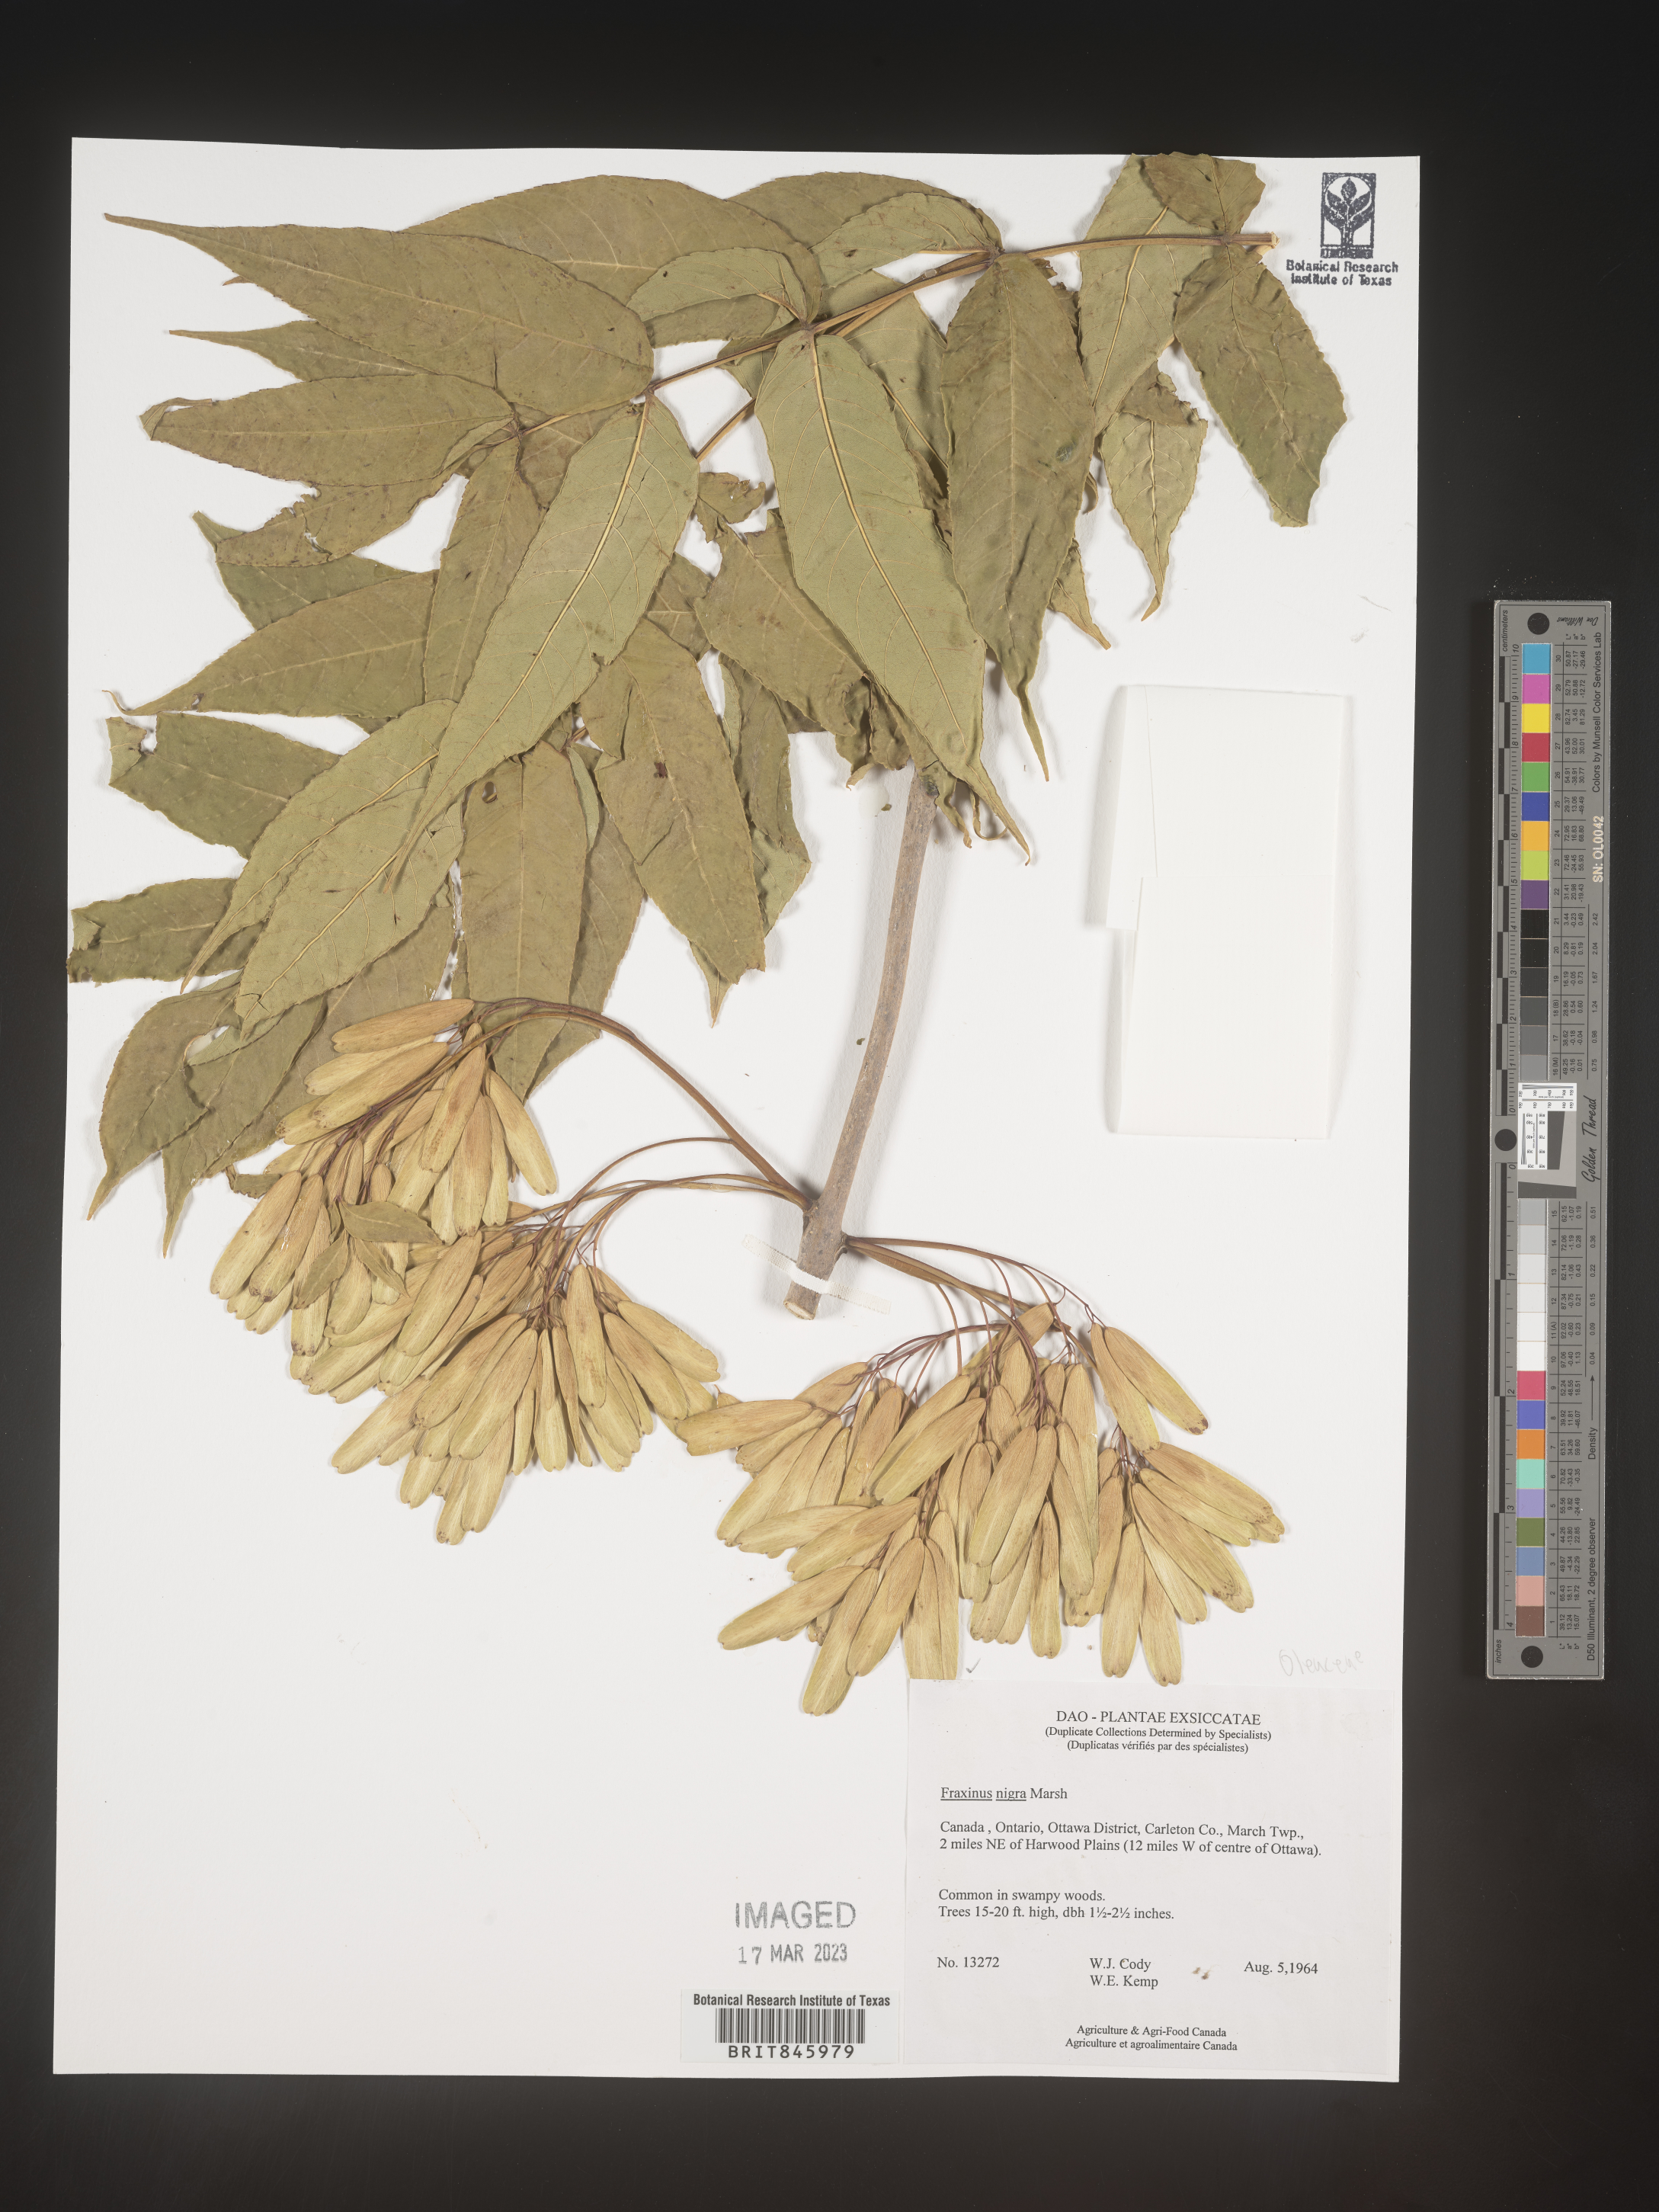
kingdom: Plantae
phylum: Tracheophyta
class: Magnoliopsida
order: Lamiales
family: Oleaceae
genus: Fraxinus
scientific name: Fraxinus nigra
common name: Black ash
